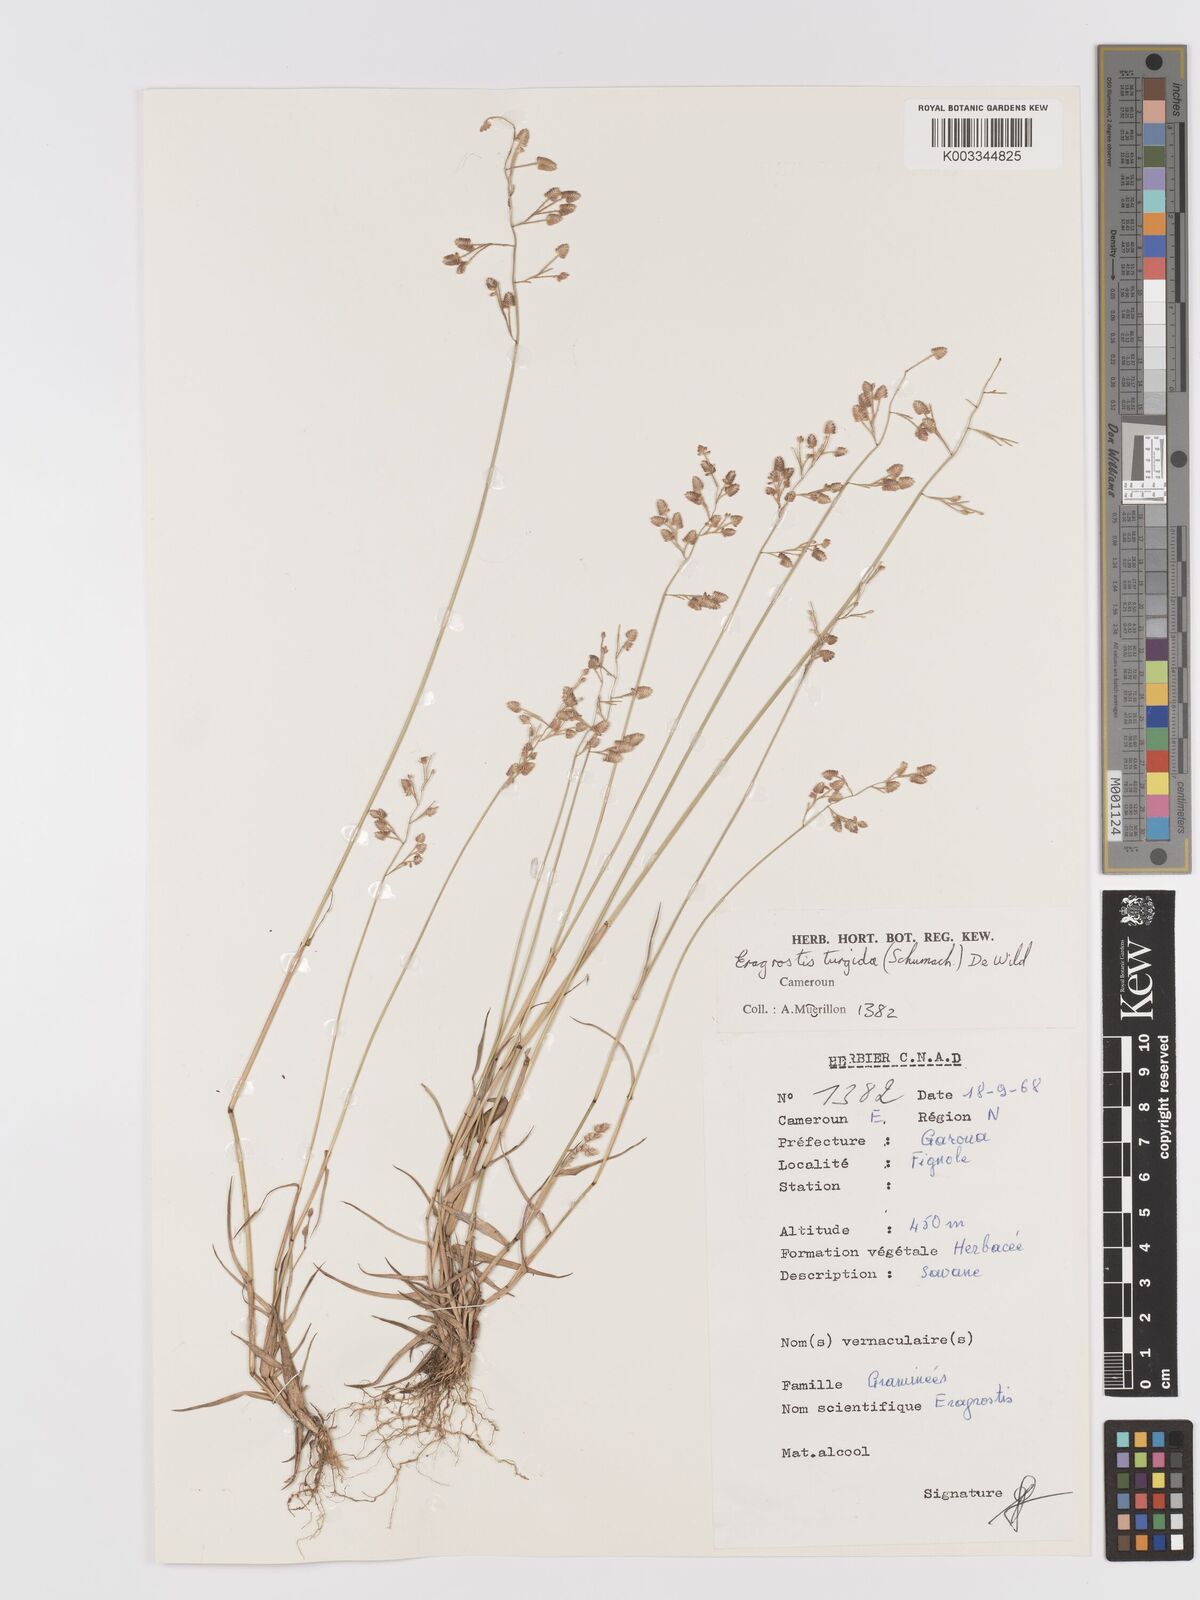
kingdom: Plantae
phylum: Tracheophyta
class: Liliopsida
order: Poales
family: Poaceae
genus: Eragrostis
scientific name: Eragrostis turgida
